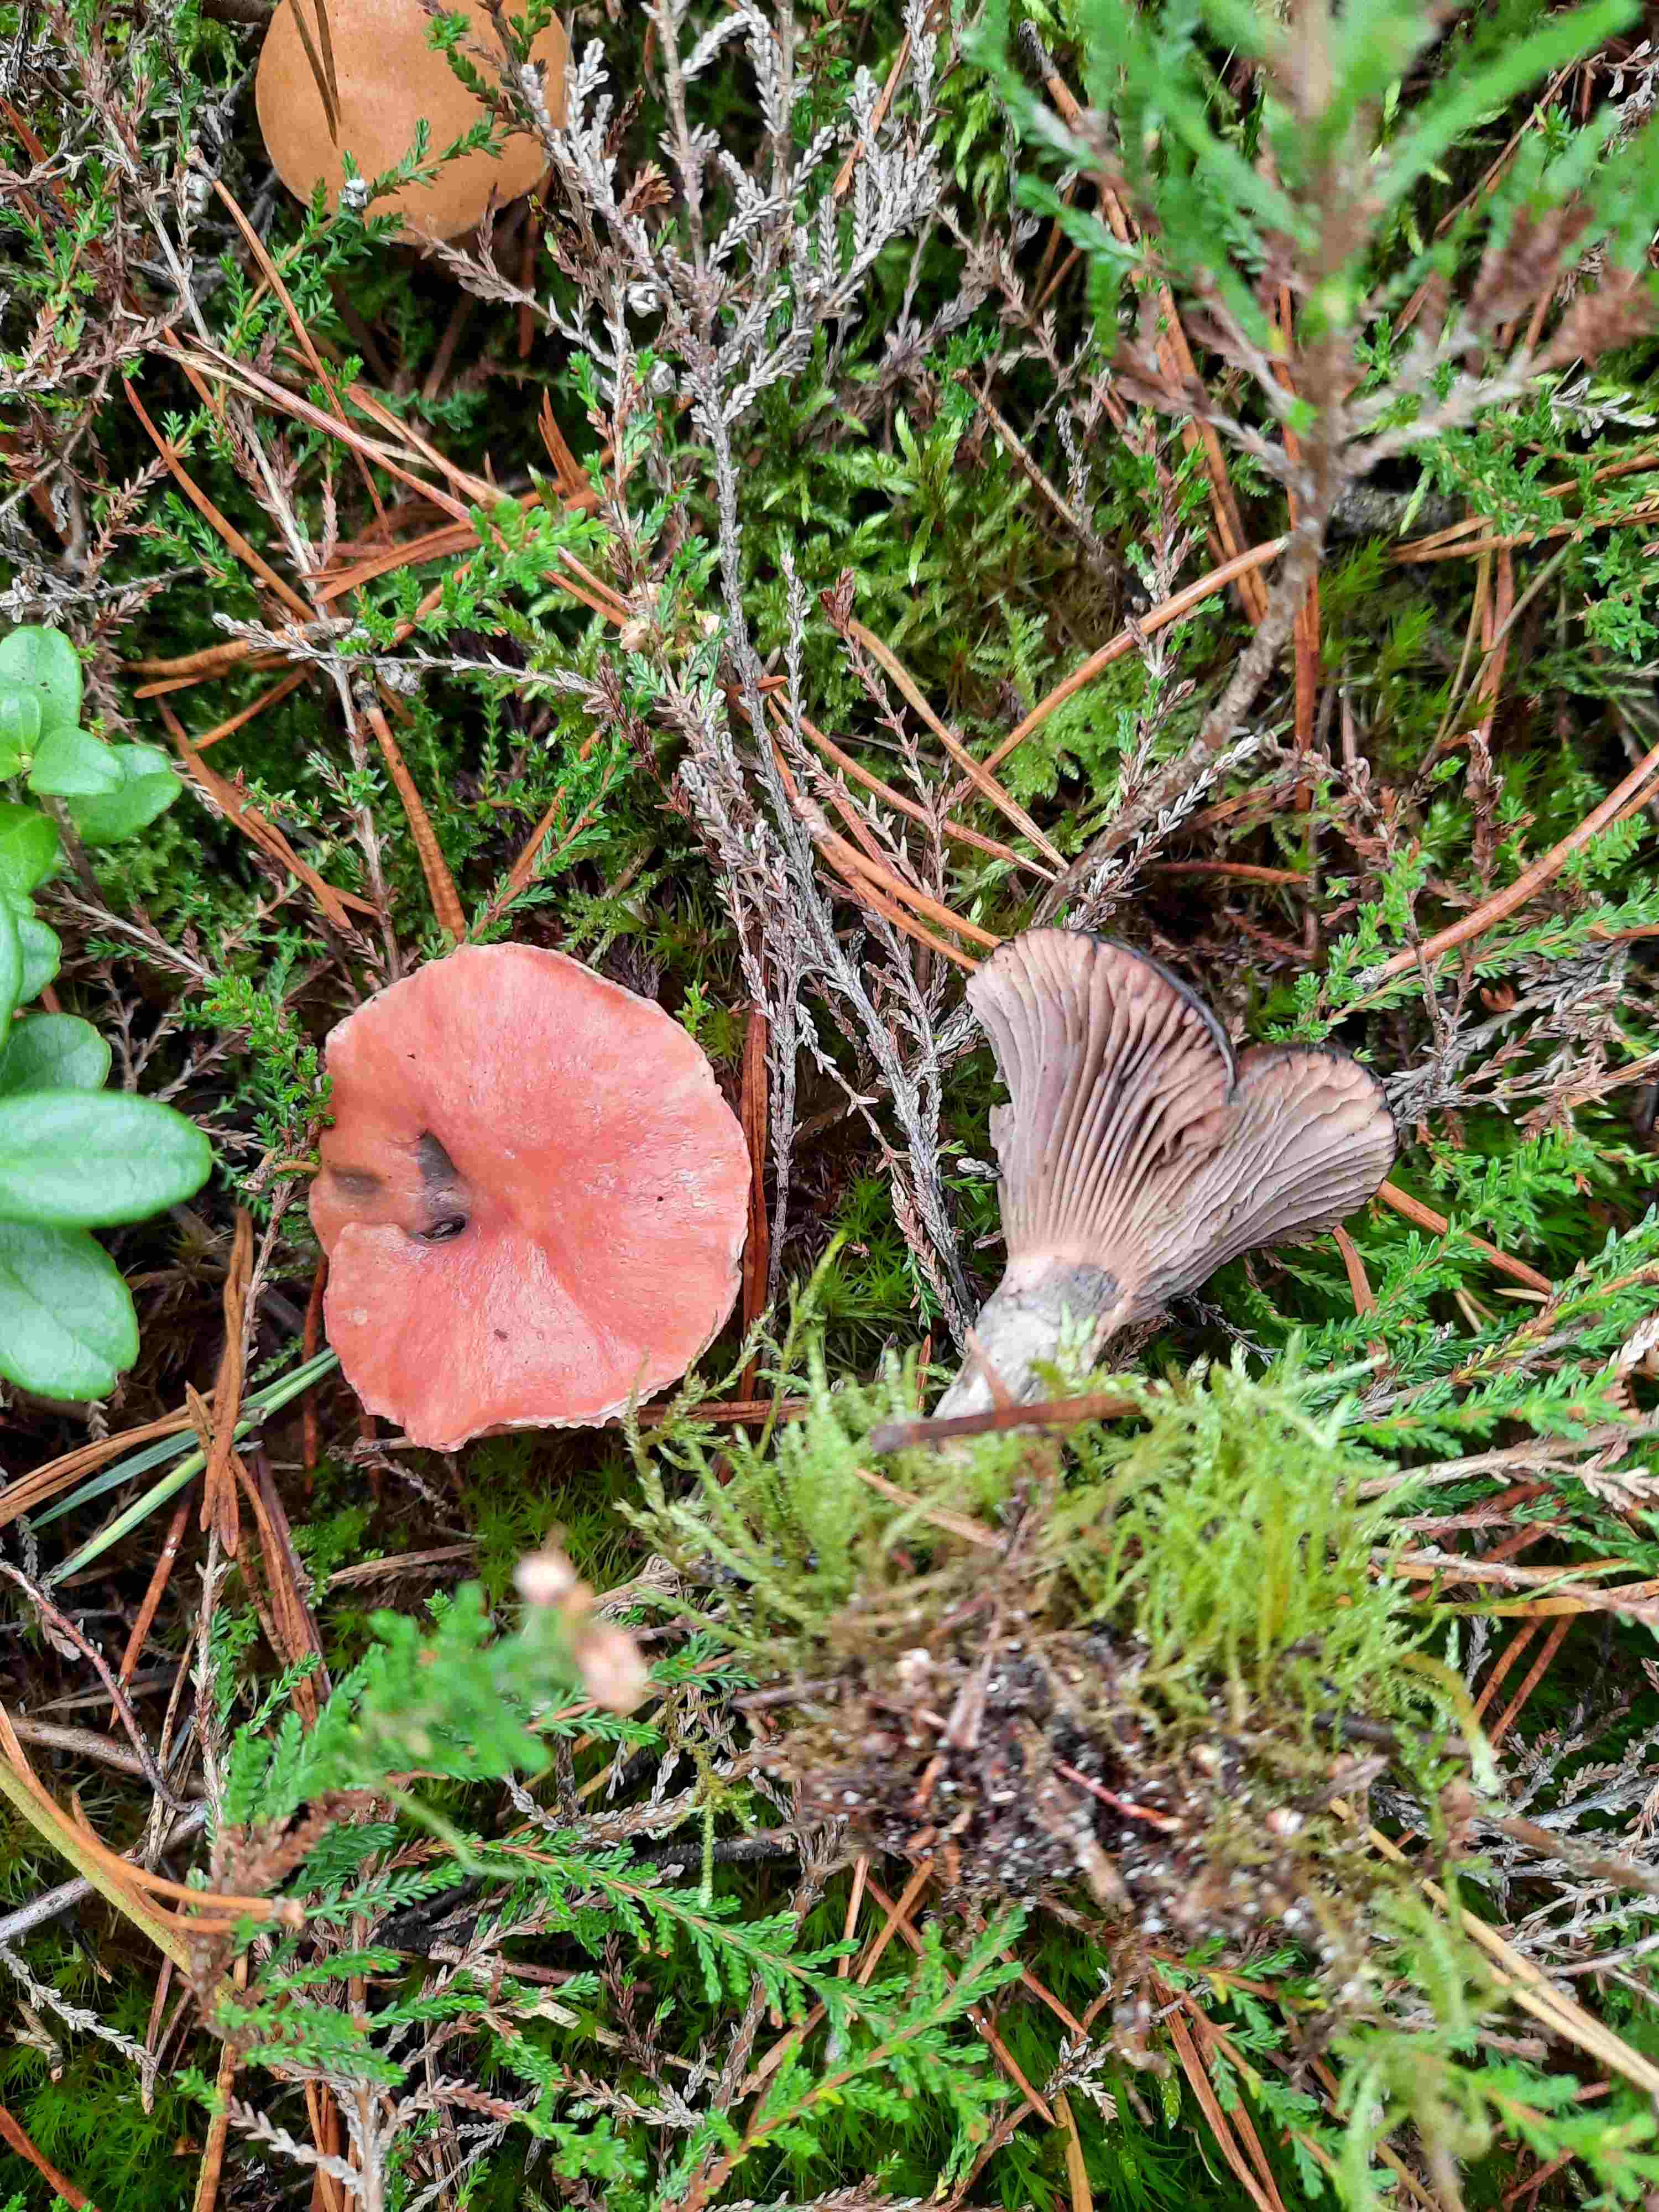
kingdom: Fungi
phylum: Basidiomycota
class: Agaricomycetes
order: Boletales
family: Gomphidiaceae
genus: Gomphidius
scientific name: Gomphidius roseus
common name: rosenrød slimslør
